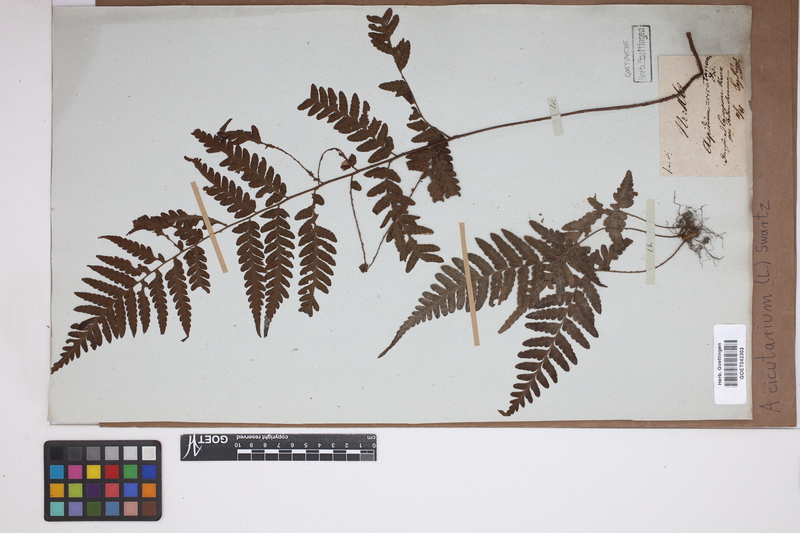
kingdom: Plantae
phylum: Tracheophyta
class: Polypodiopsida
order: Polypodiales
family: Tectariaceae
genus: Tectaria
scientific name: Tectaria cicutaria
